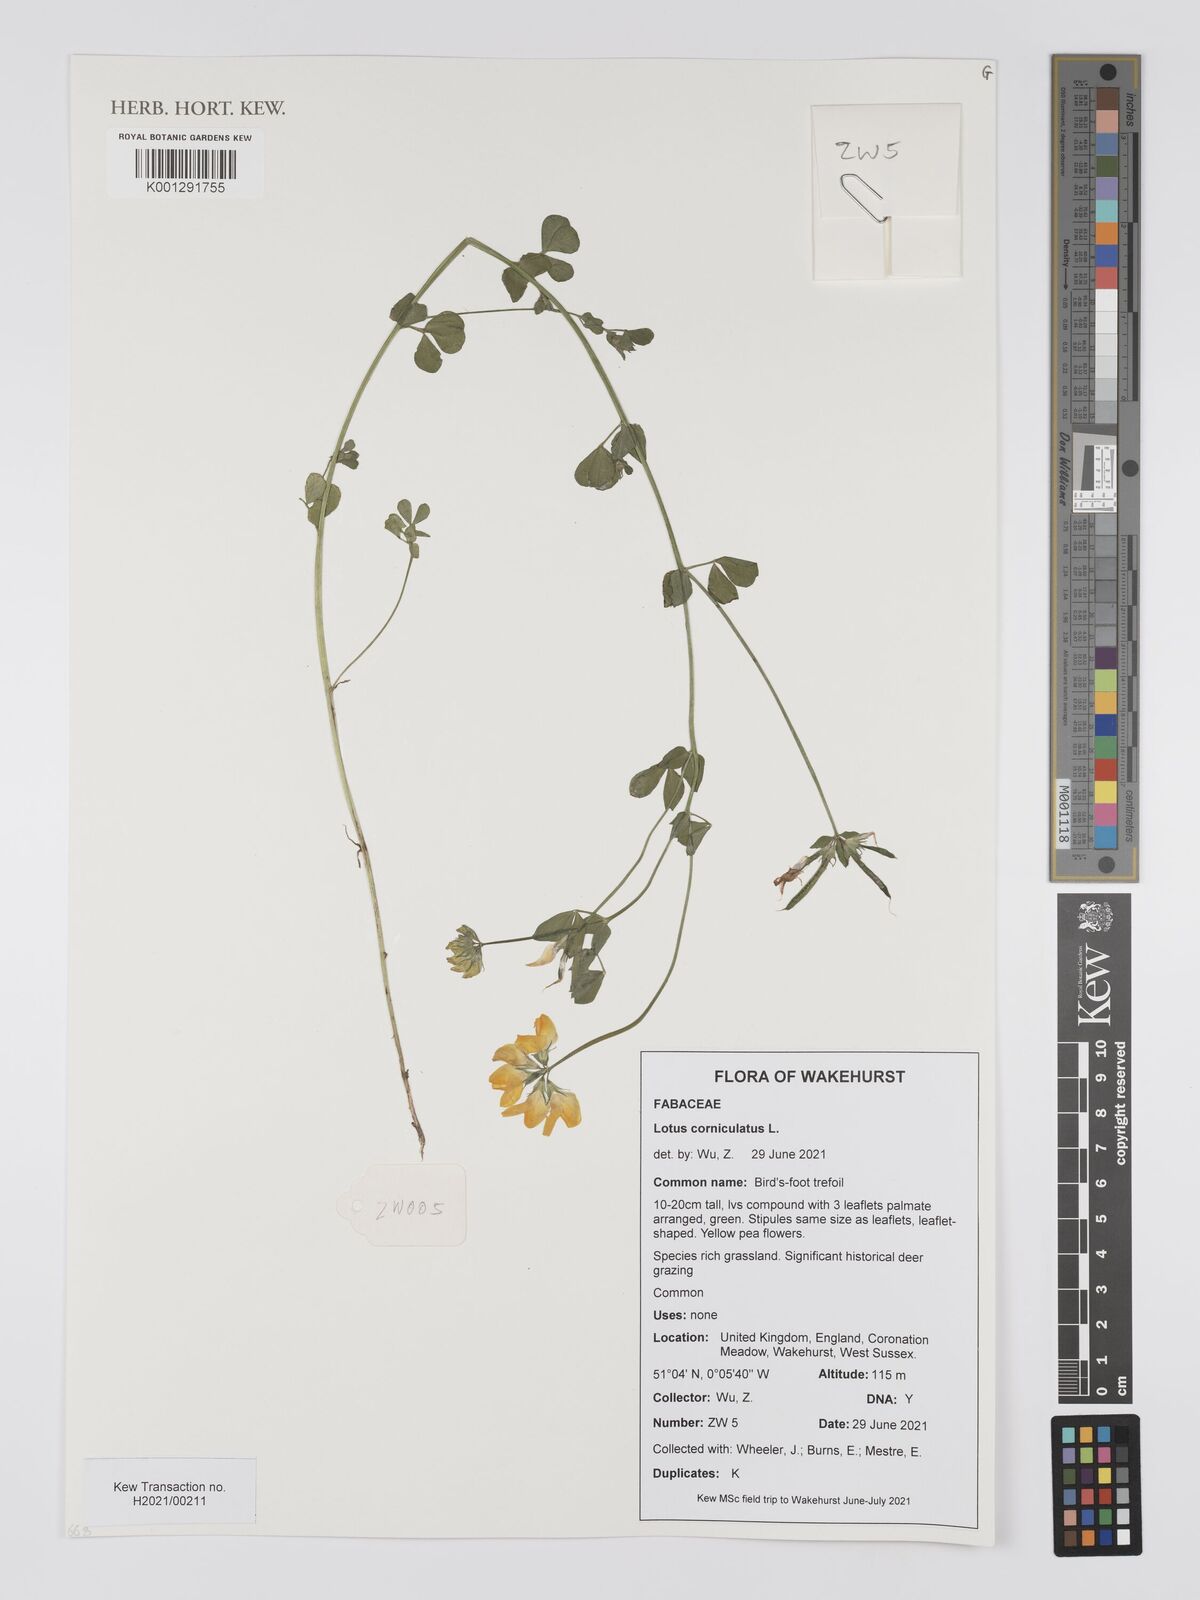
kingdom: Plantae
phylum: Tracheophyta
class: Magnoliopsida
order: Fabales
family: Fabaceae
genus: Lotus
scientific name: Lotus corniculatus
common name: Common bird's-foot-trefoil
